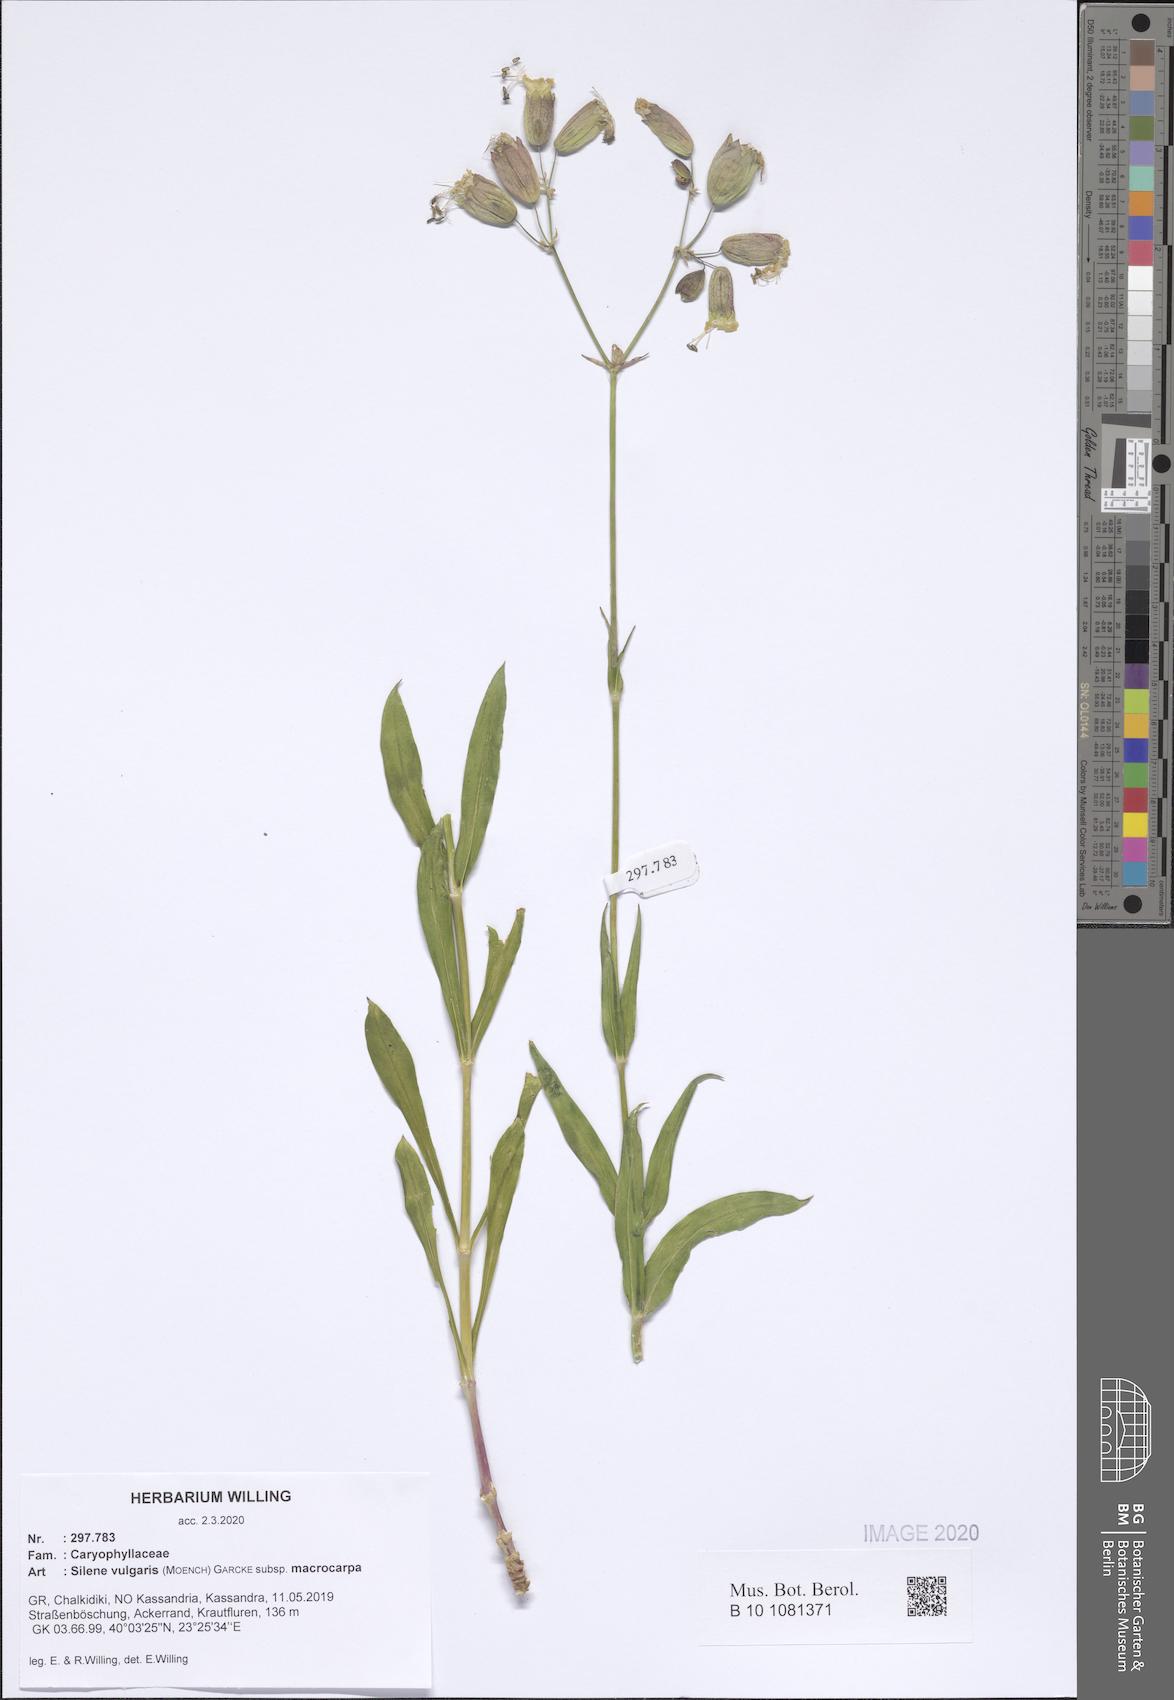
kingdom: Plantae
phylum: Tracheophyta
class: Magnoliopsida
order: Caryophyllales
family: Caryophyllaceae
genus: Silene
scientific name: Silene vulgaris
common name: Bladder campion
